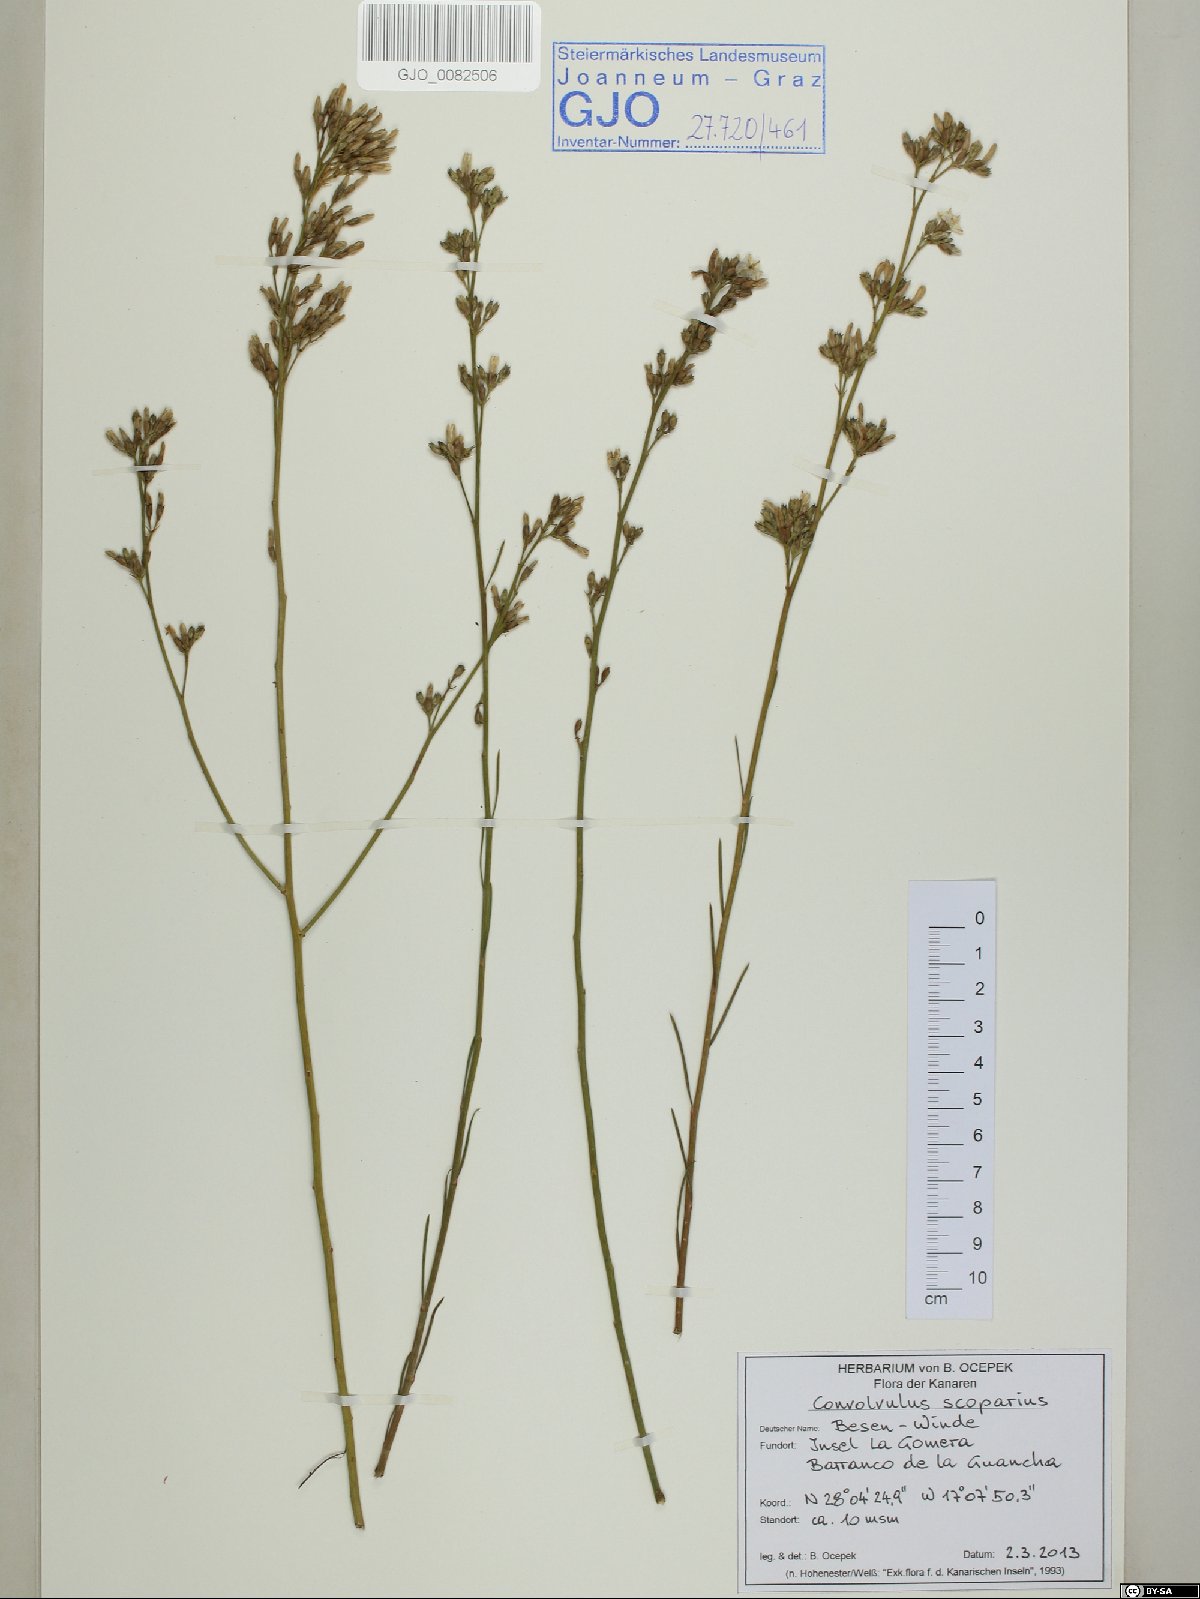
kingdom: Plantae
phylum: Tracheophyta
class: Magnoliopsida
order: Solanales
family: Convolvulaceae
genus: Convolvulus
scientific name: Convolvulus scoparius
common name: Lignum rhodium
